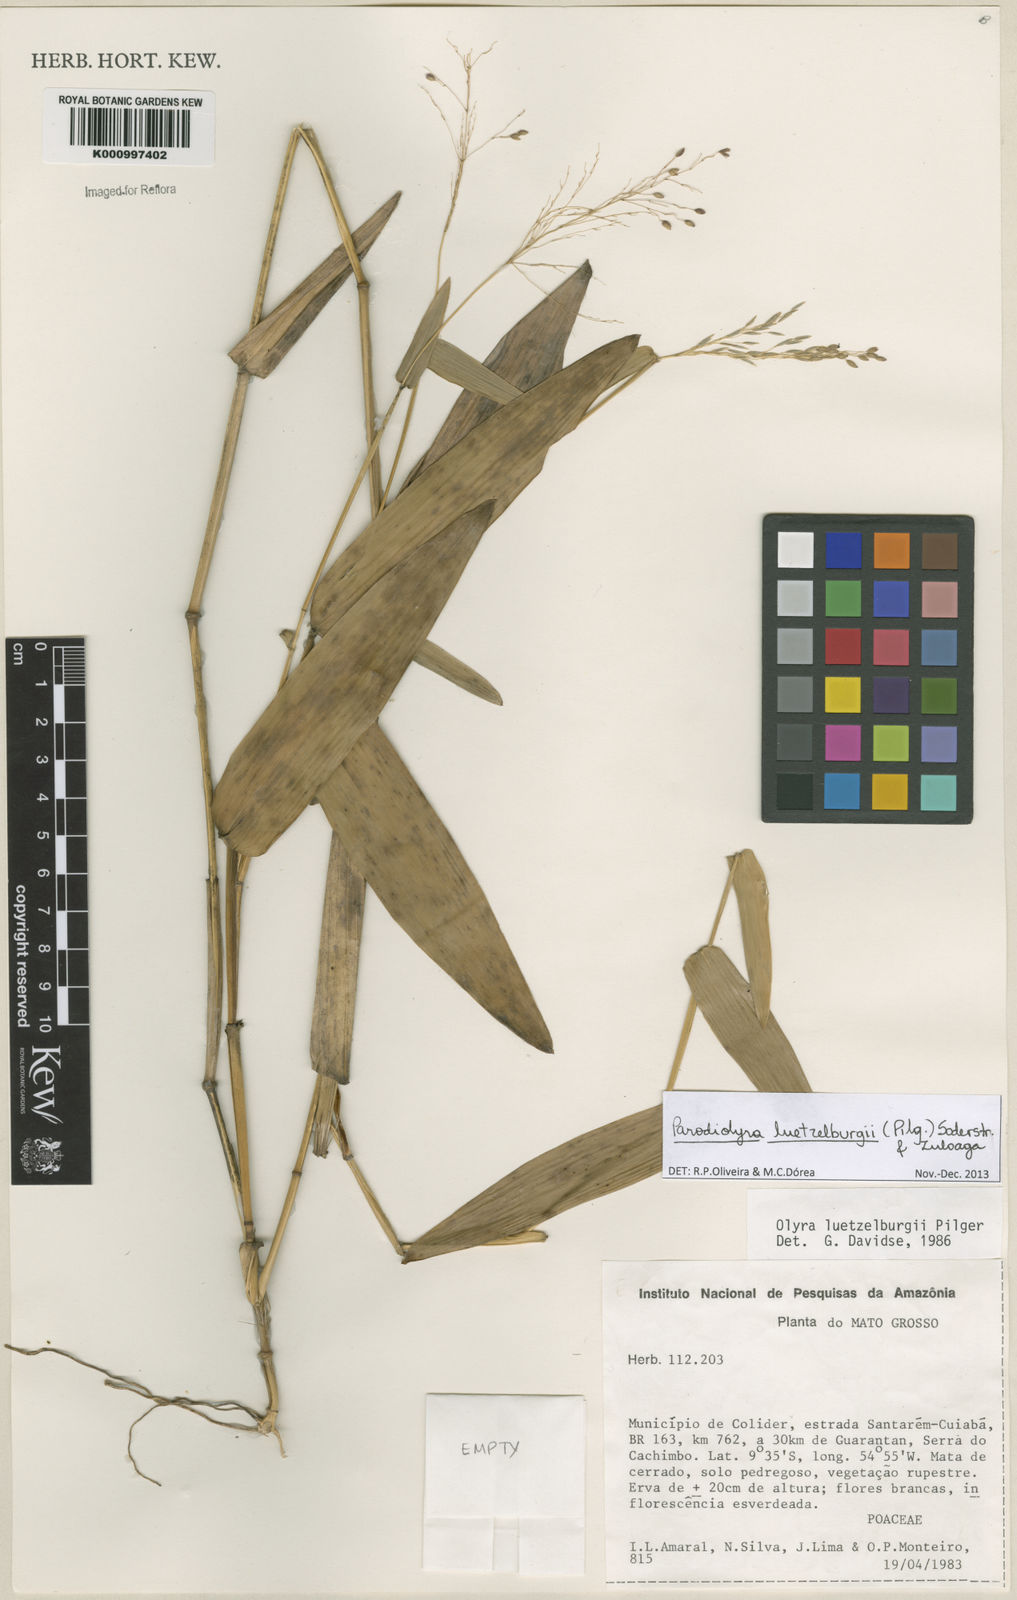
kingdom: Plantae
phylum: Tracheophyta
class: Liliopsida
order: Poales
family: Poaceae
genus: Parodiolyra
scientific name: Parodiolyra luetzelburgii
